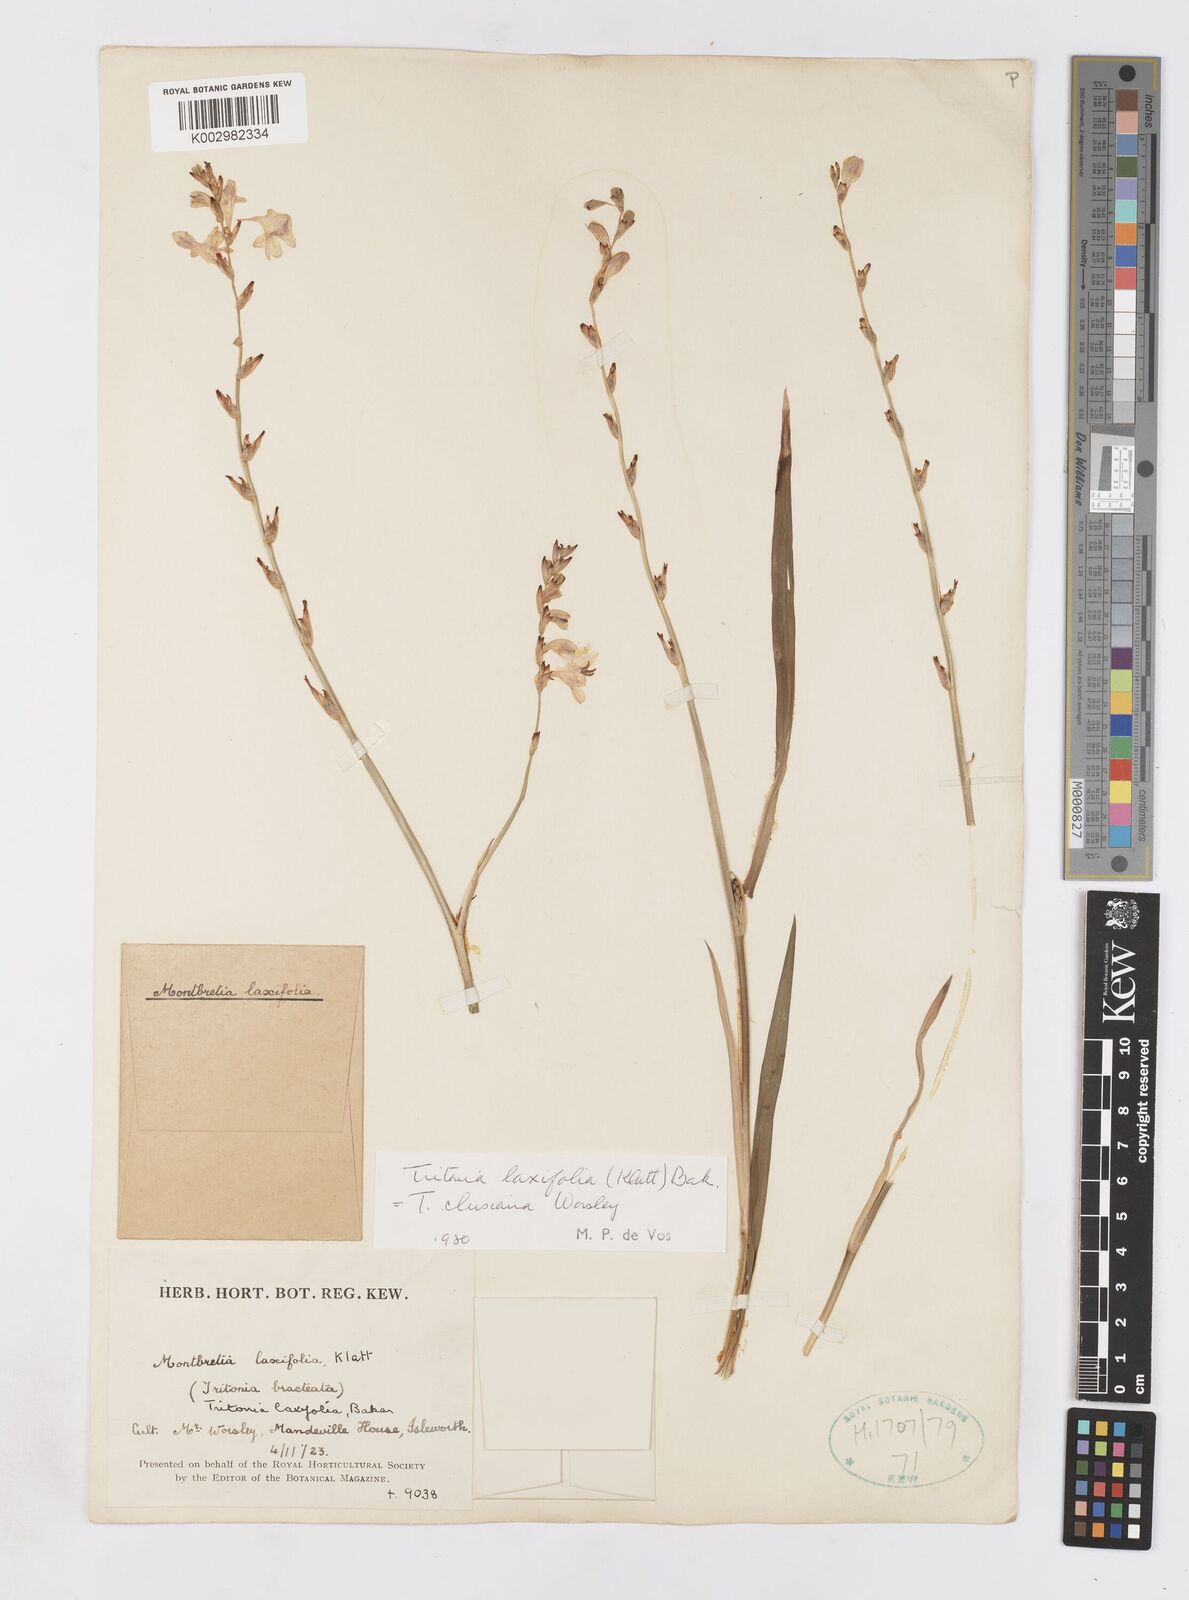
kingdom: Plantae
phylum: Tracheophyta
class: Liliopsida
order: Asparagales
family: Iridaceae
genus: Tritonia
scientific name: Tritonia laxifolia
